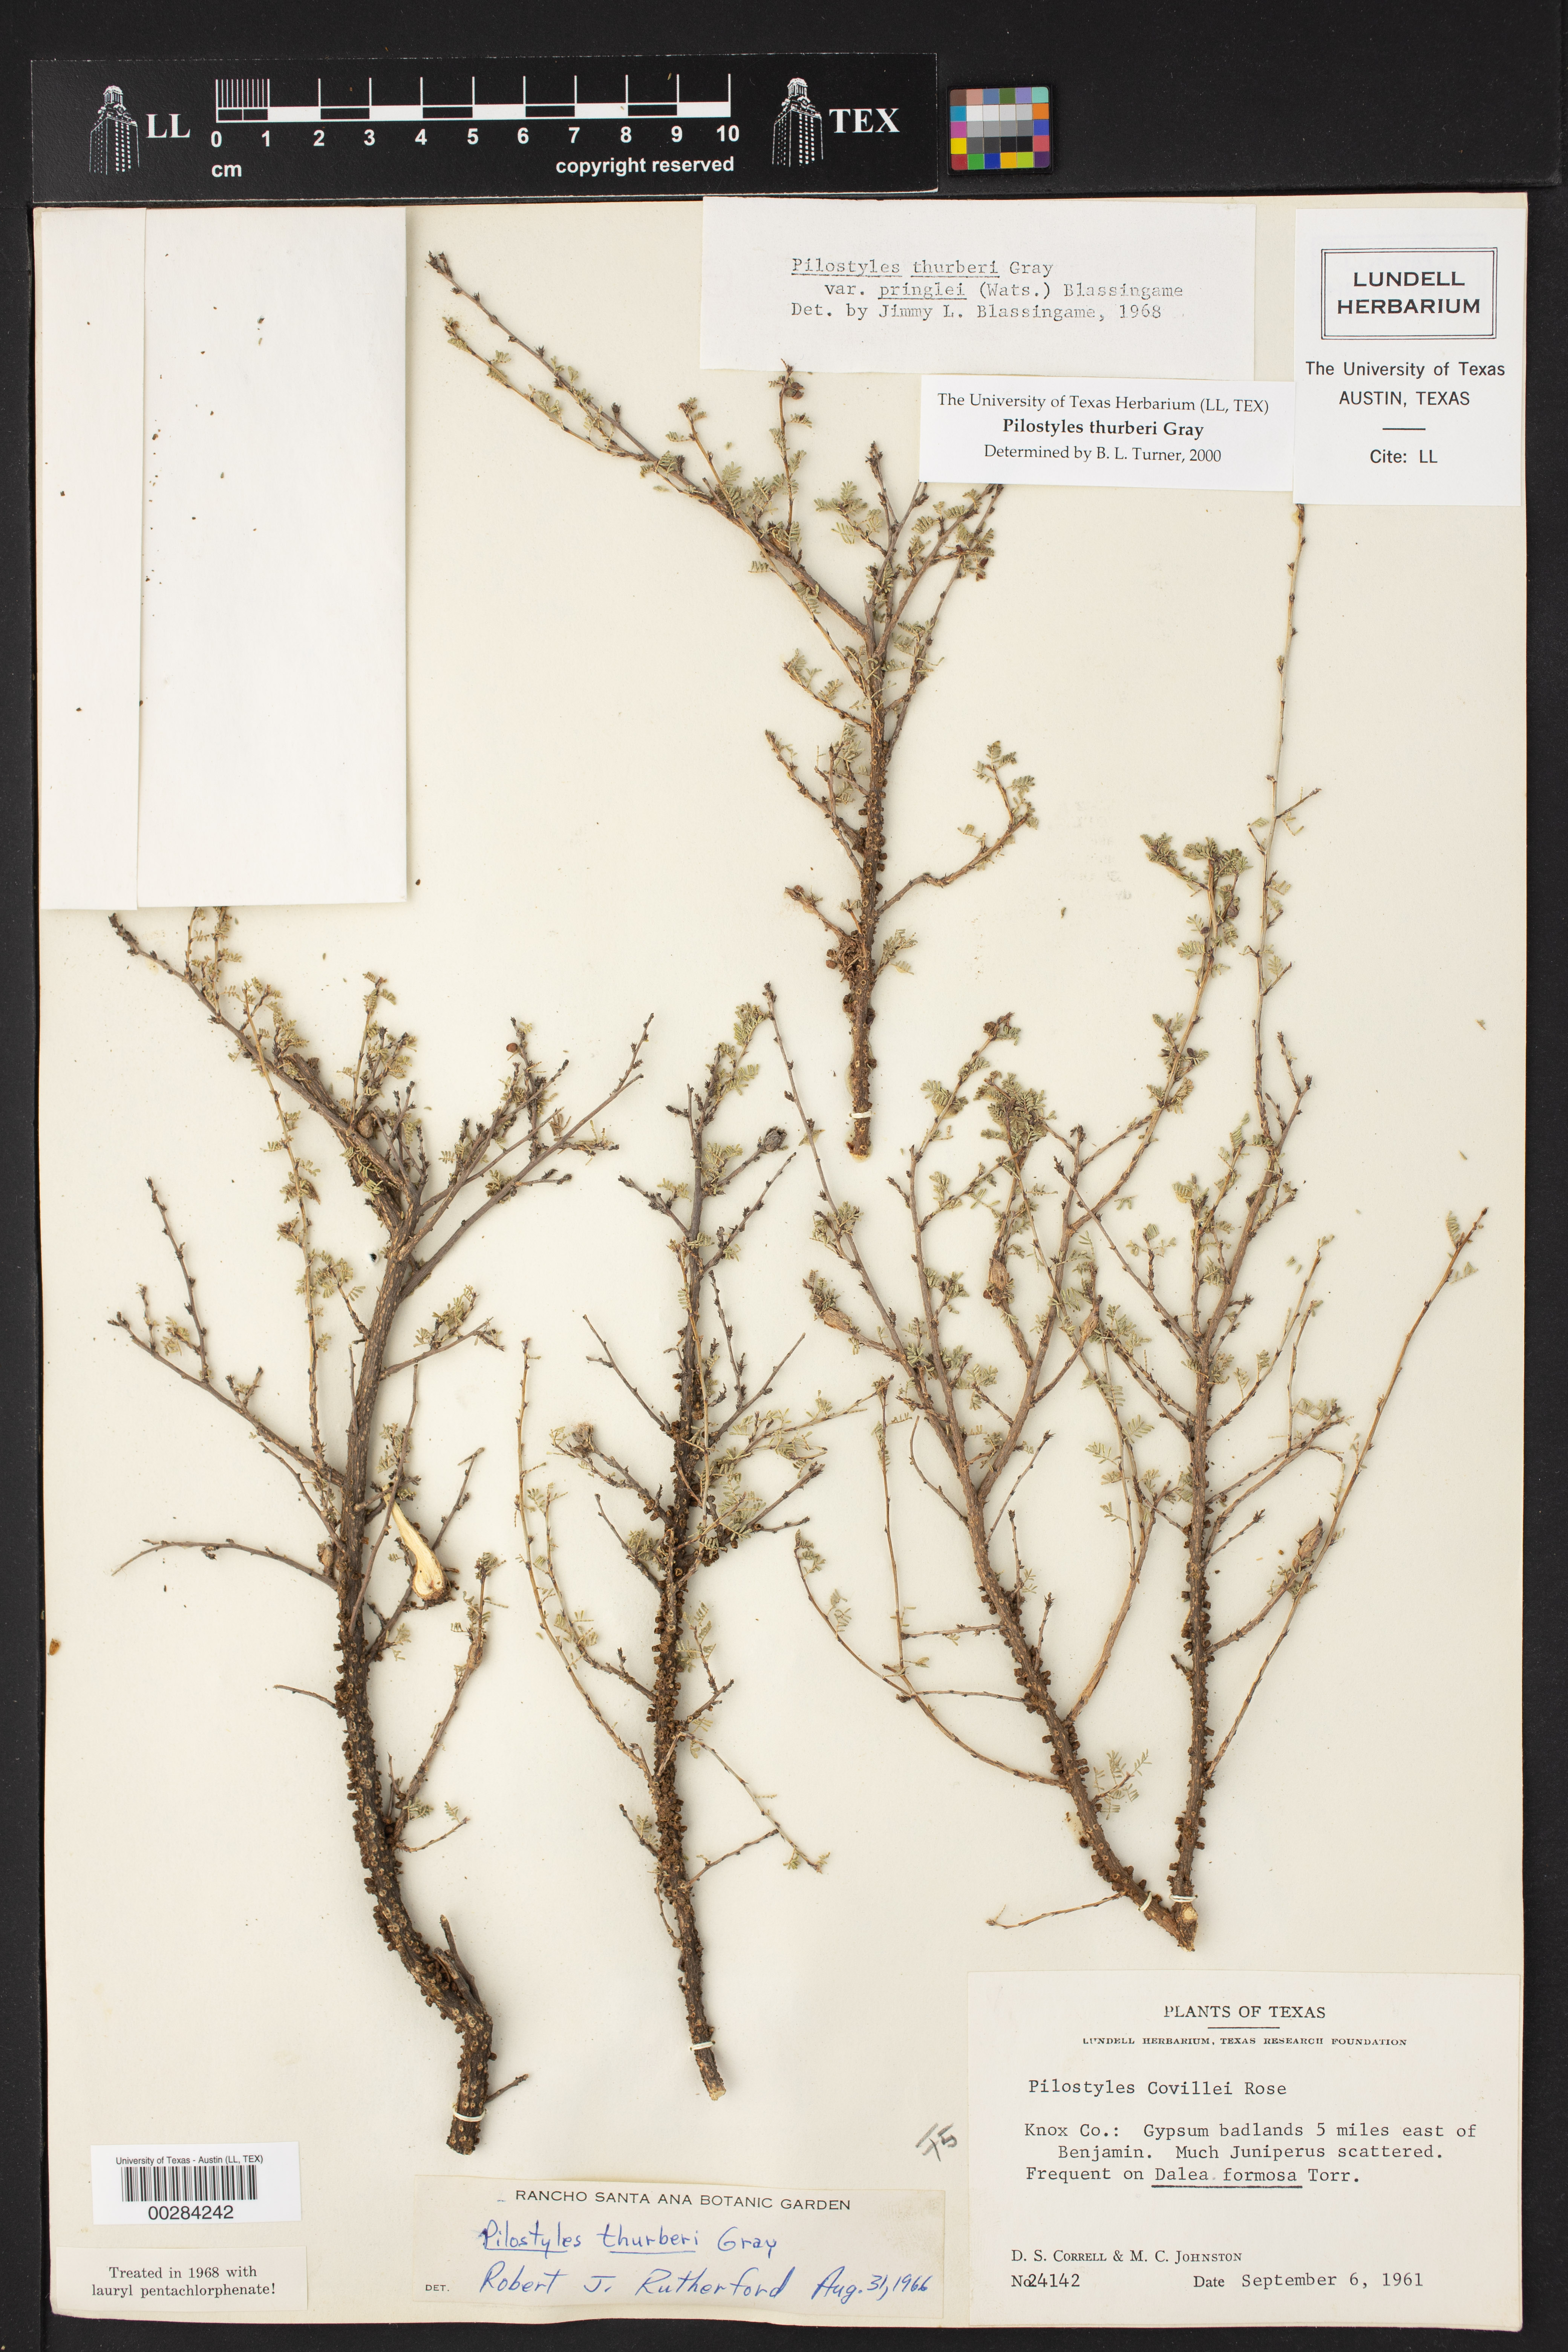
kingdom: Plantae
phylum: Tracheophyta
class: Magnoliopsida
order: Cucurbitales
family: Apodanthaceae
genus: Pilostyles
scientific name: Pilostyles thurberi
